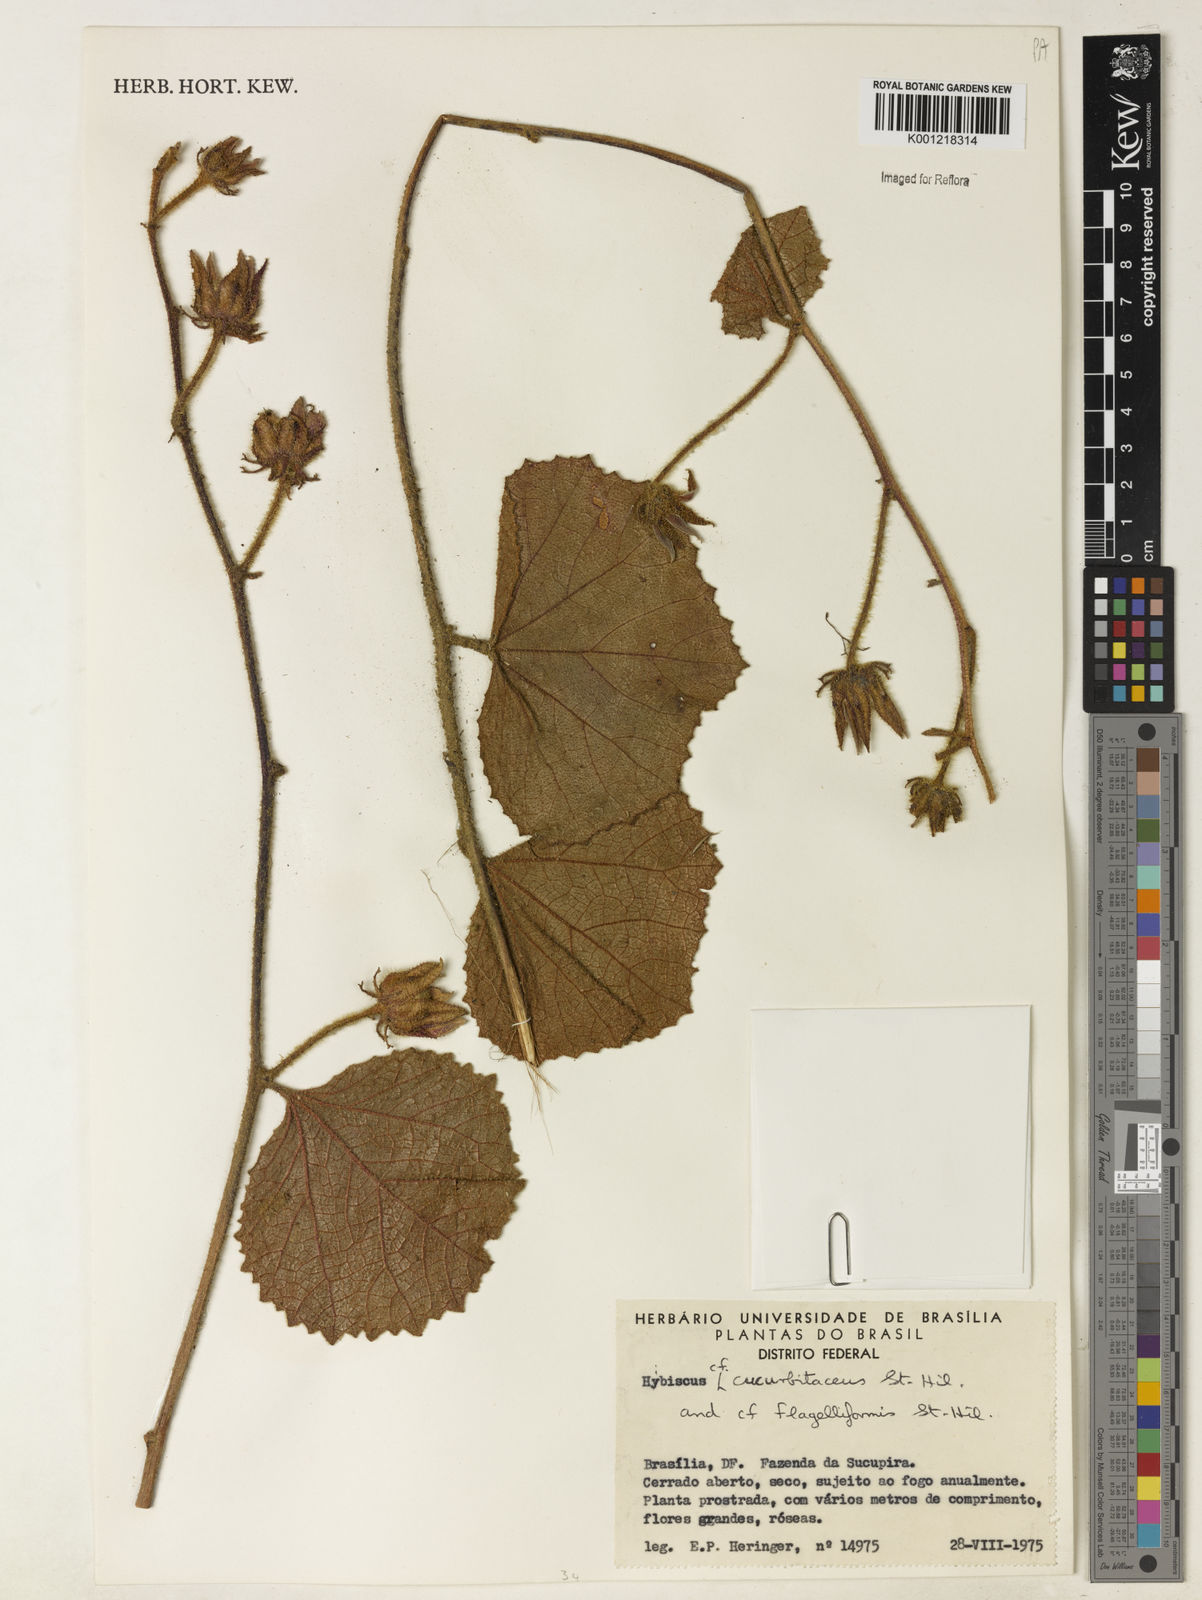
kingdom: Plantae
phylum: Tracheophyta
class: Magnoliopsida
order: Malvales
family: Malvaceae
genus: Hibiscus
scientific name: Hibiscus cucurbitaceus
